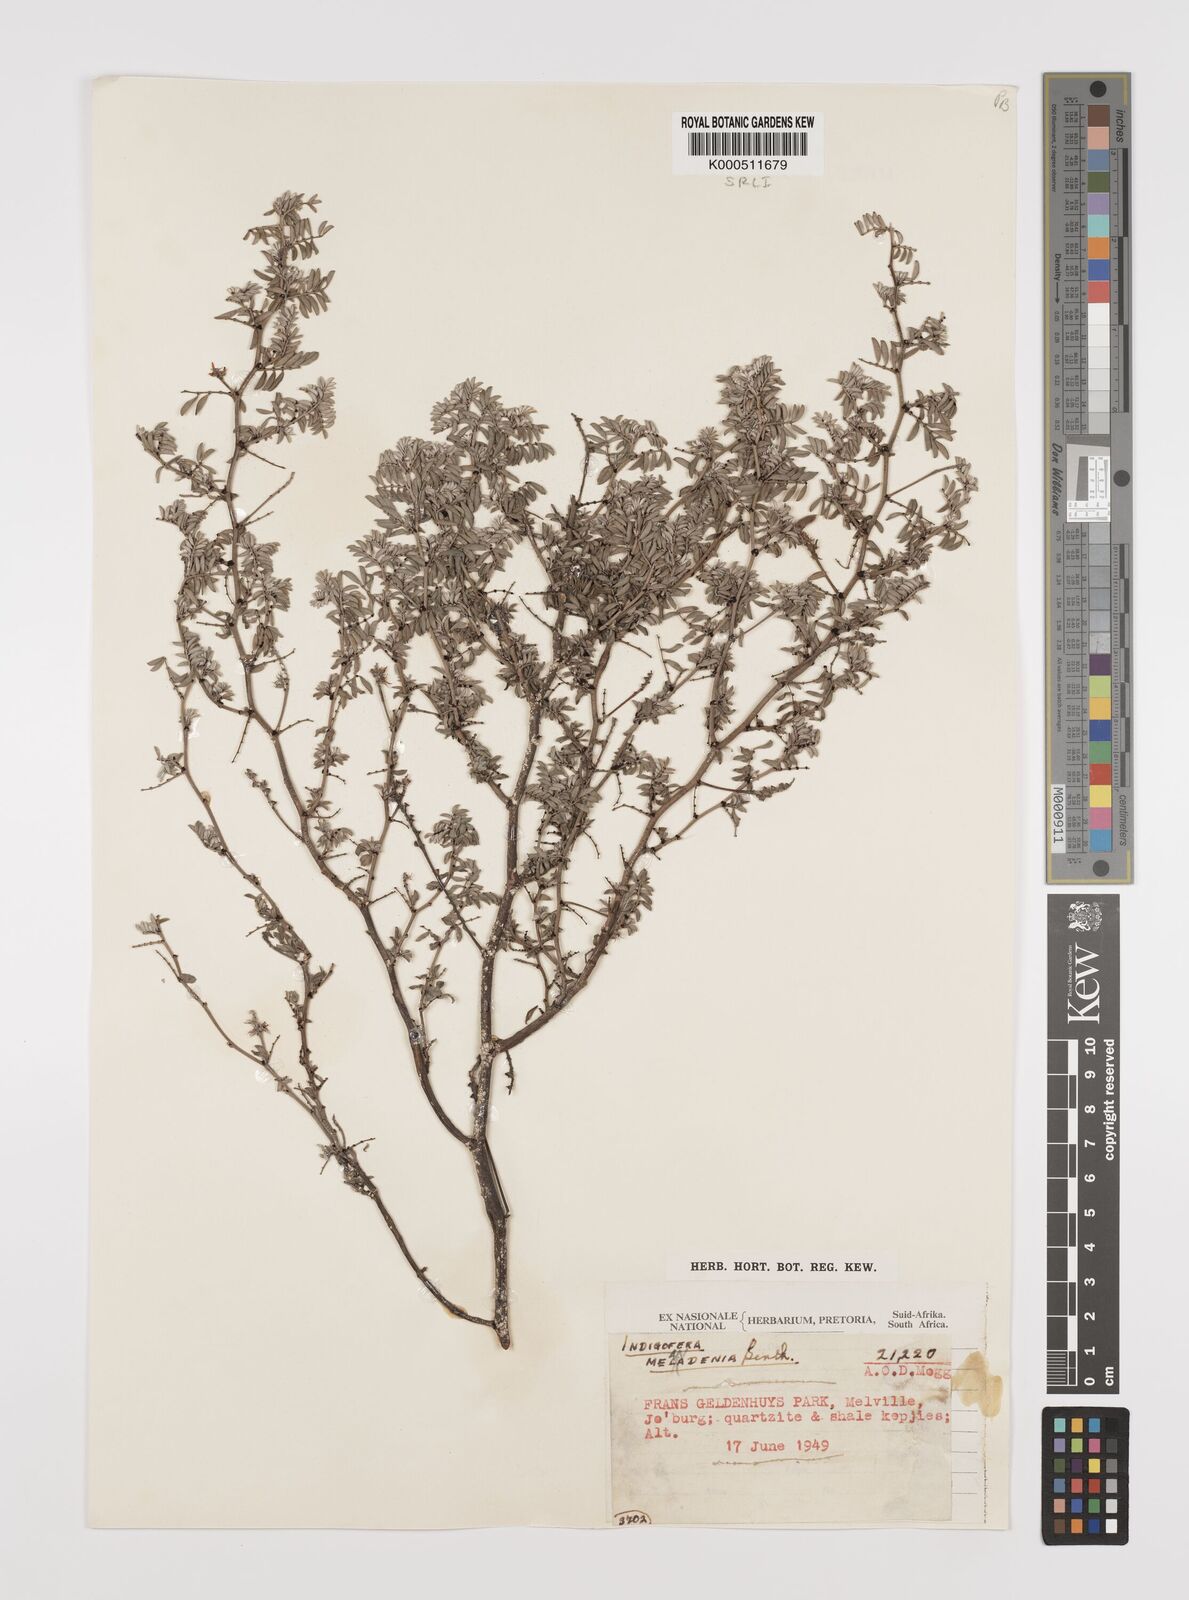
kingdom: Plantae
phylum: Tracheophyta
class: Magnoliopsida
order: Fabales
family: Fabaceae
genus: Indigofera
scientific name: Indigofera melanadenia
